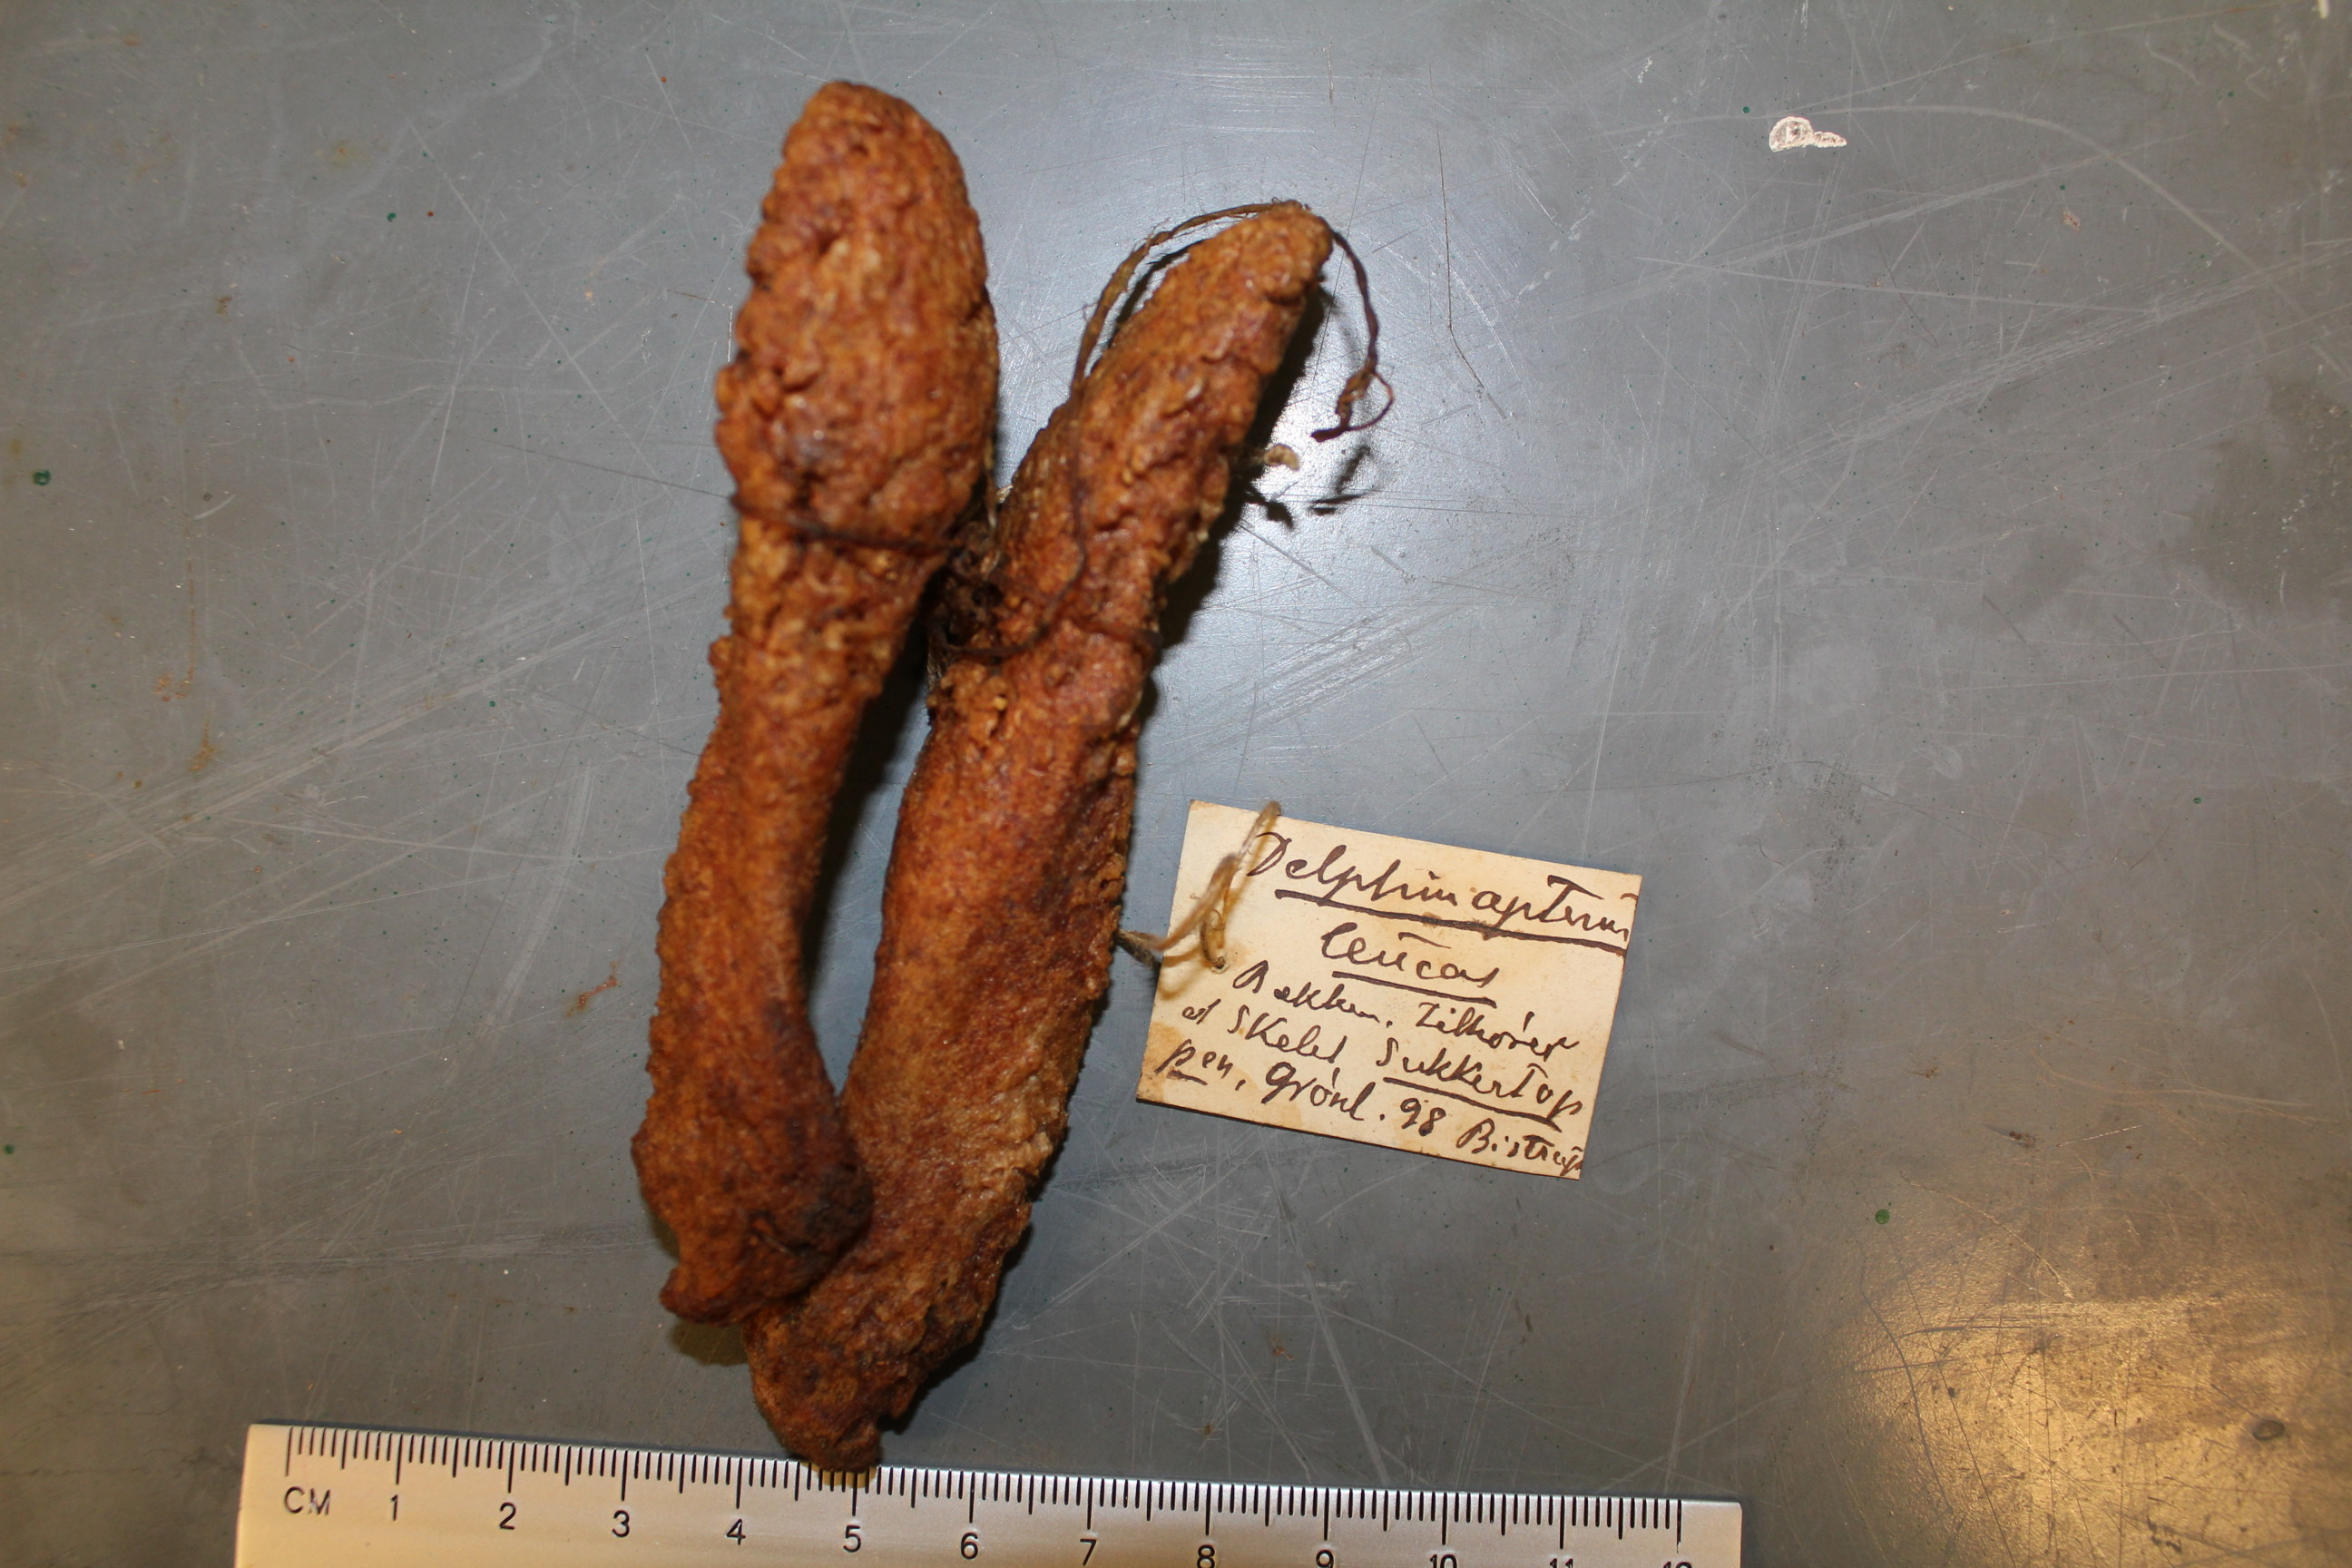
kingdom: Animalia
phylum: Chordata
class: Mammalia
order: Cetacea
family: Monodontidae
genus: Delphinapterus
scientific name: Delphinapterus leucas
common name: Beluga
